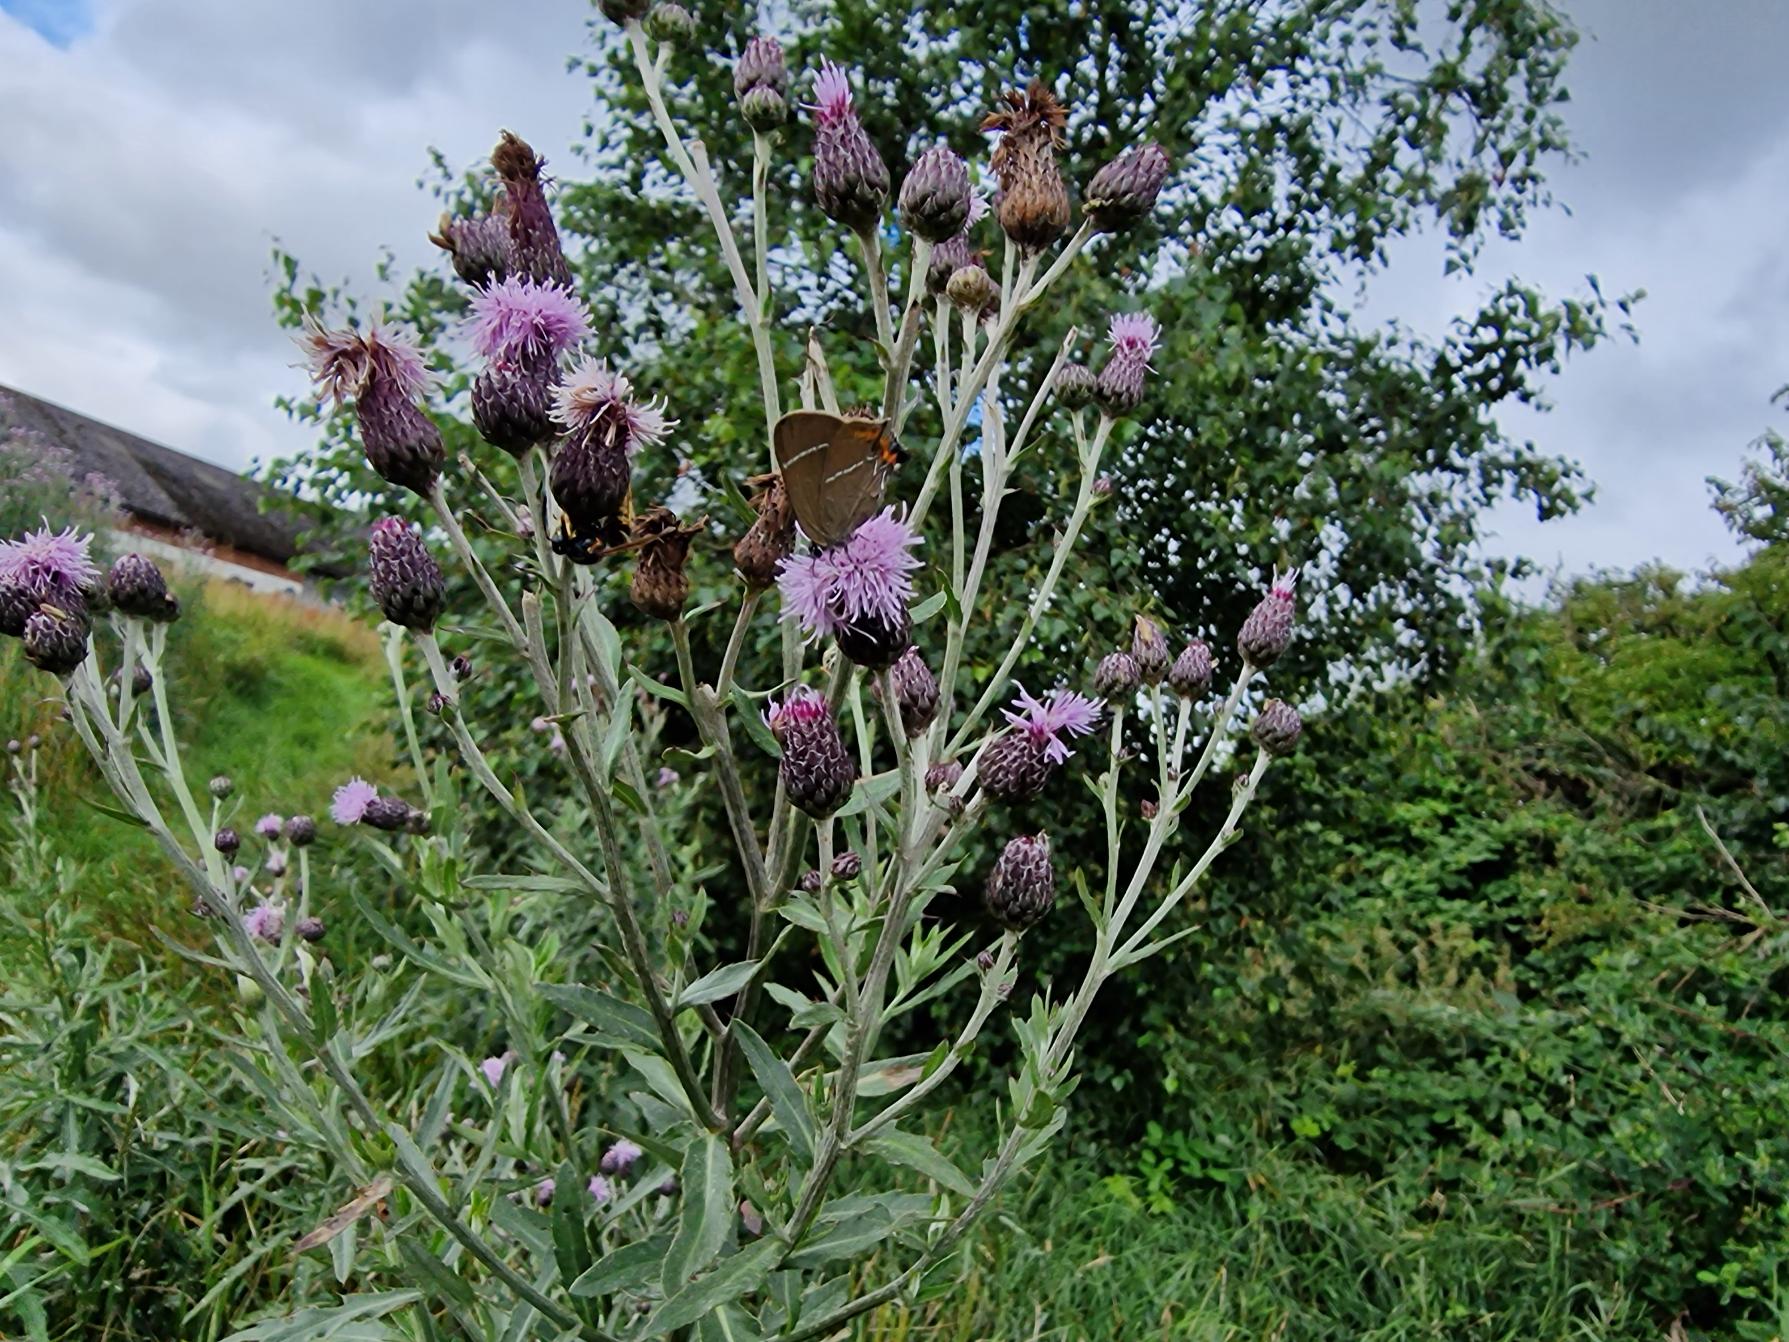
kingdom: Animalia
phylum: Arthropoda
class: Insecta
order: Lepidoptera
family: Lycaenidae
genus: Satyrium
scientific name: Satyrium w-album
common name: Det hvide W
